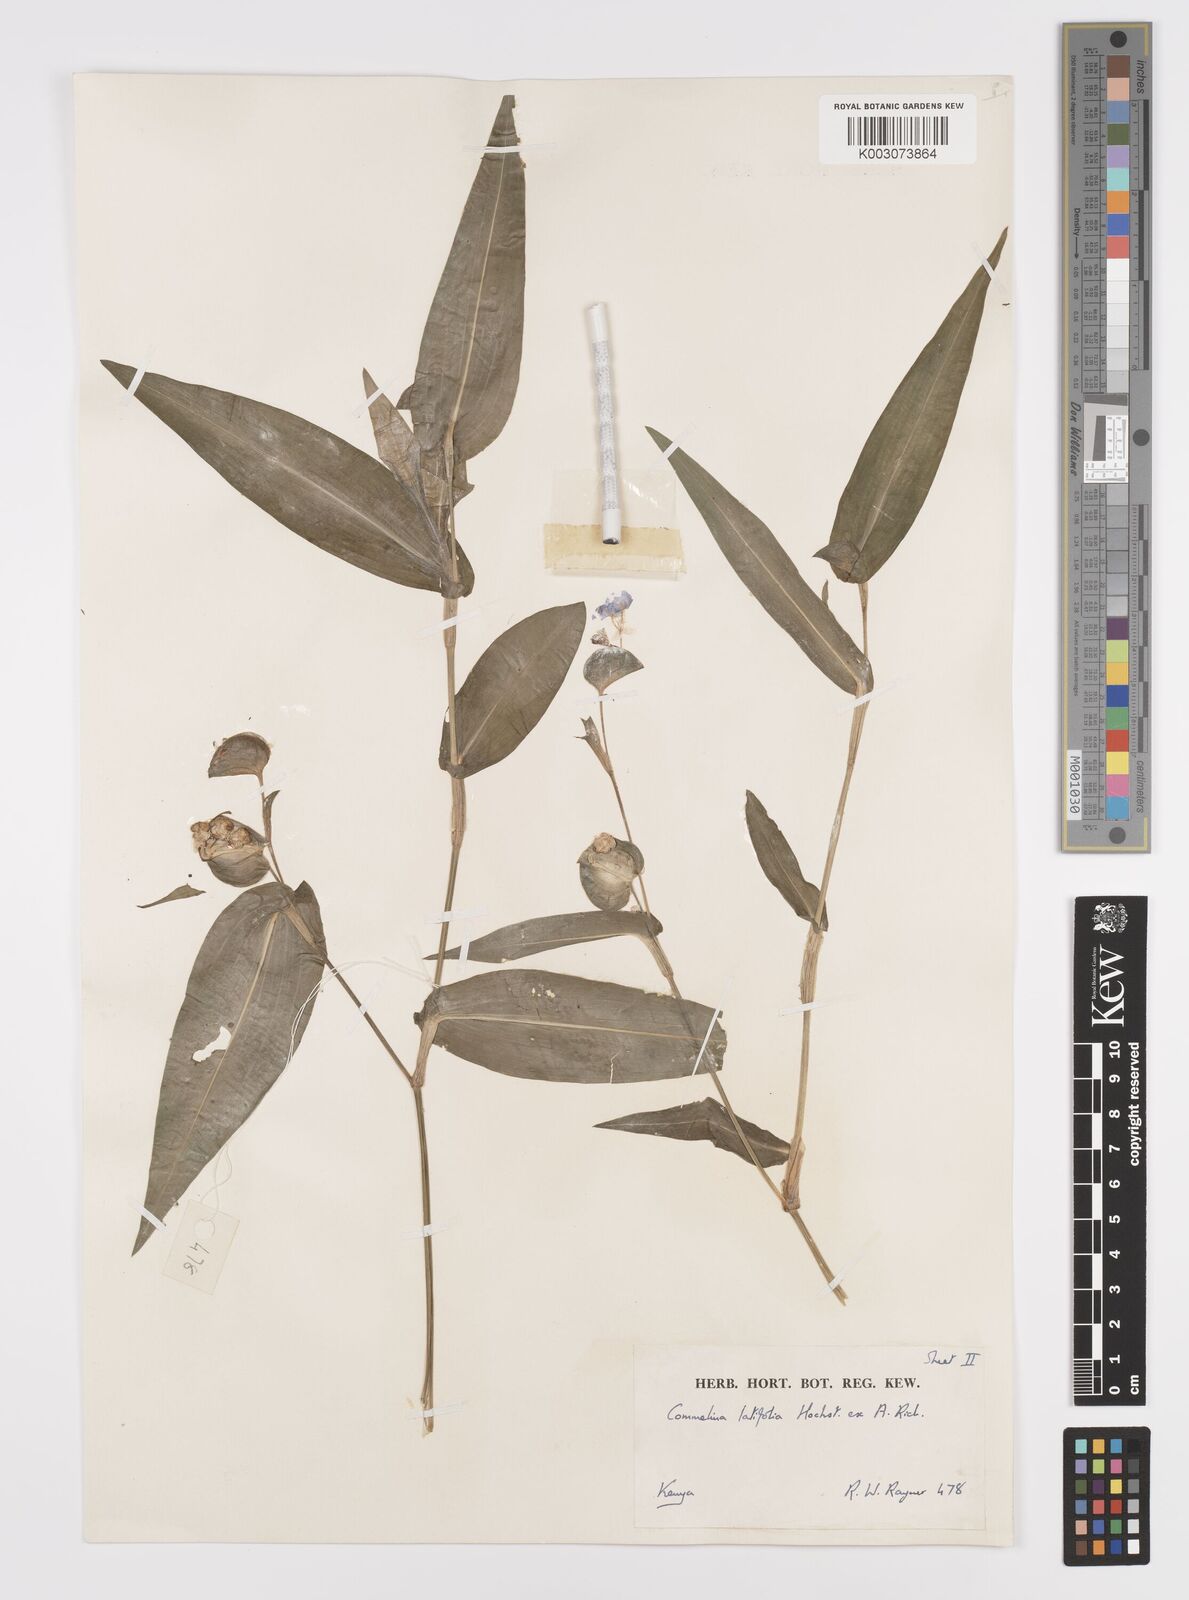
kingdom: Plantae
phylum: Tracheophyta
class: Liliopsida
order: Commelinales
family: Commelinaceae
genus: Commelina
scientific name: Commelina latifolia
